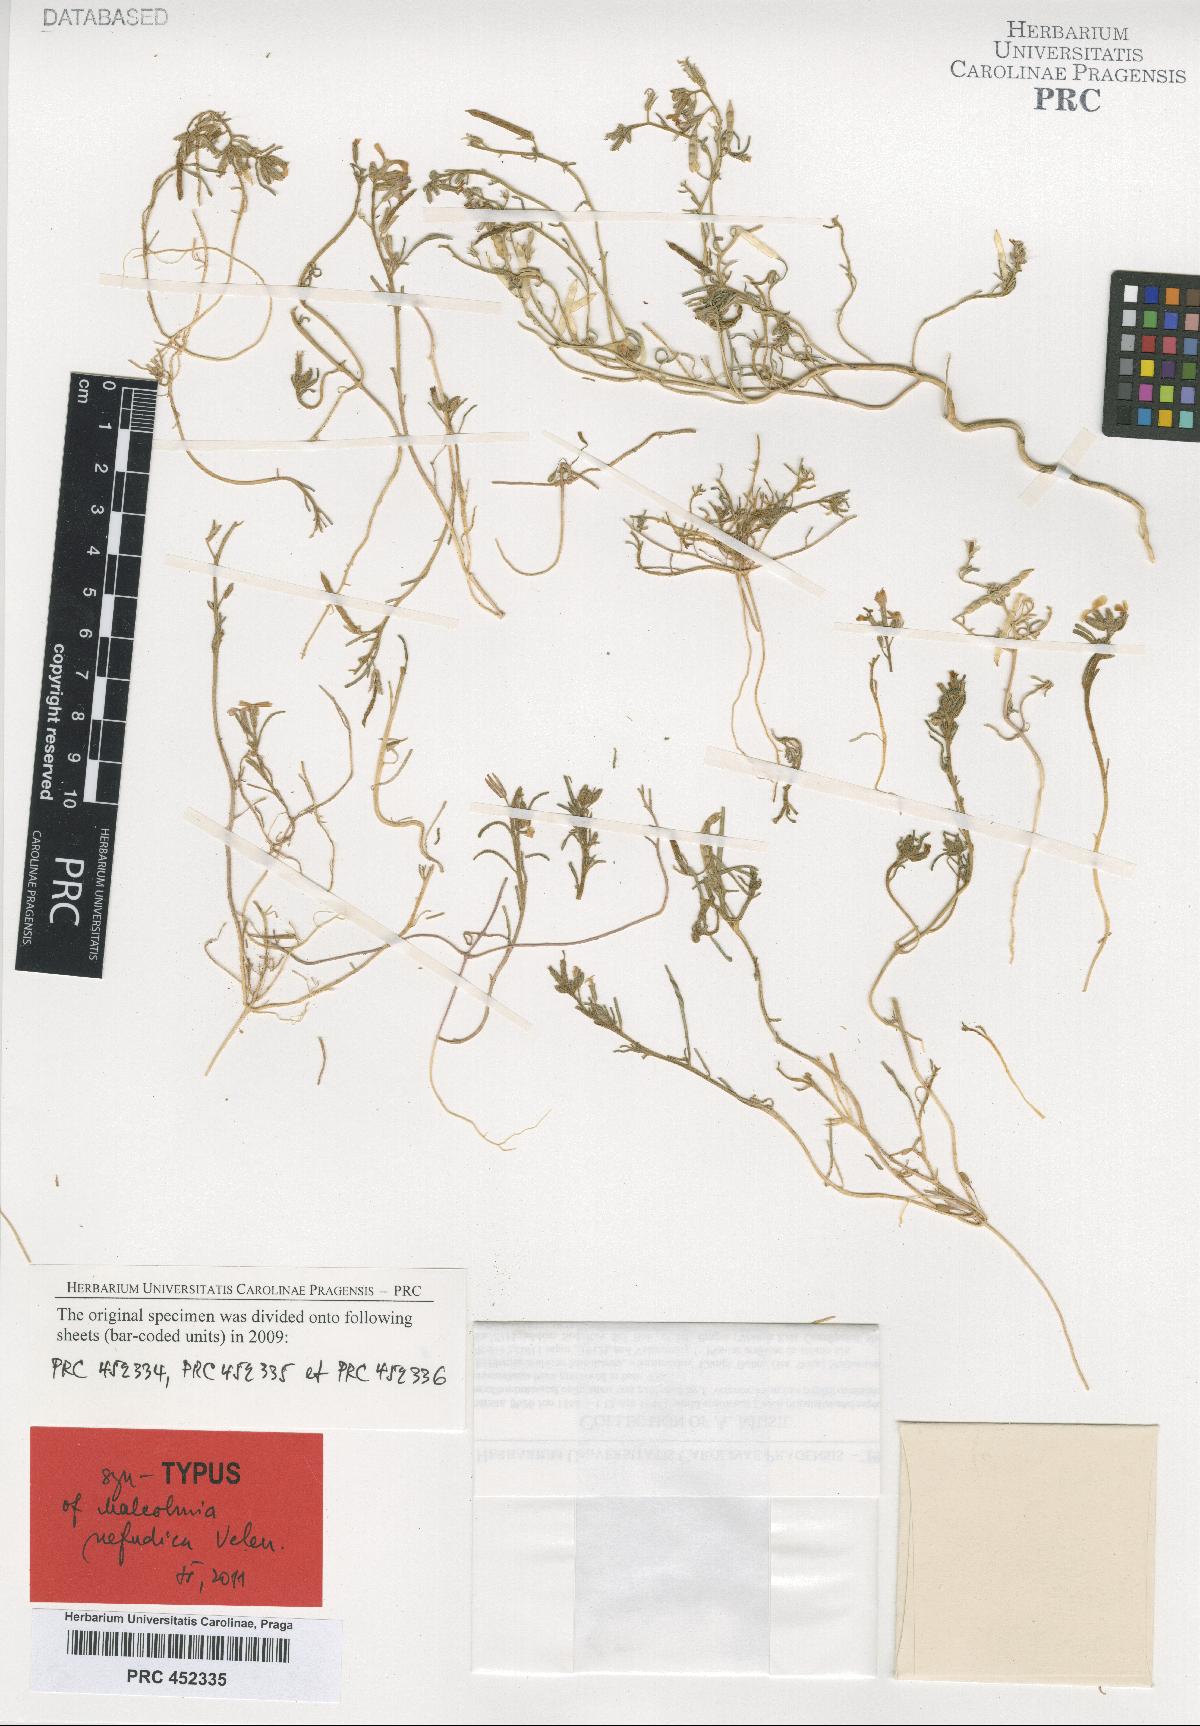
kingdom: Plantae
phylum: Tracheophyta
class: Magnoliopsida
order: Brassicales
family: Brassicaceae
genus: Eremobium
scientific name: Eremobium aegyptiacum
